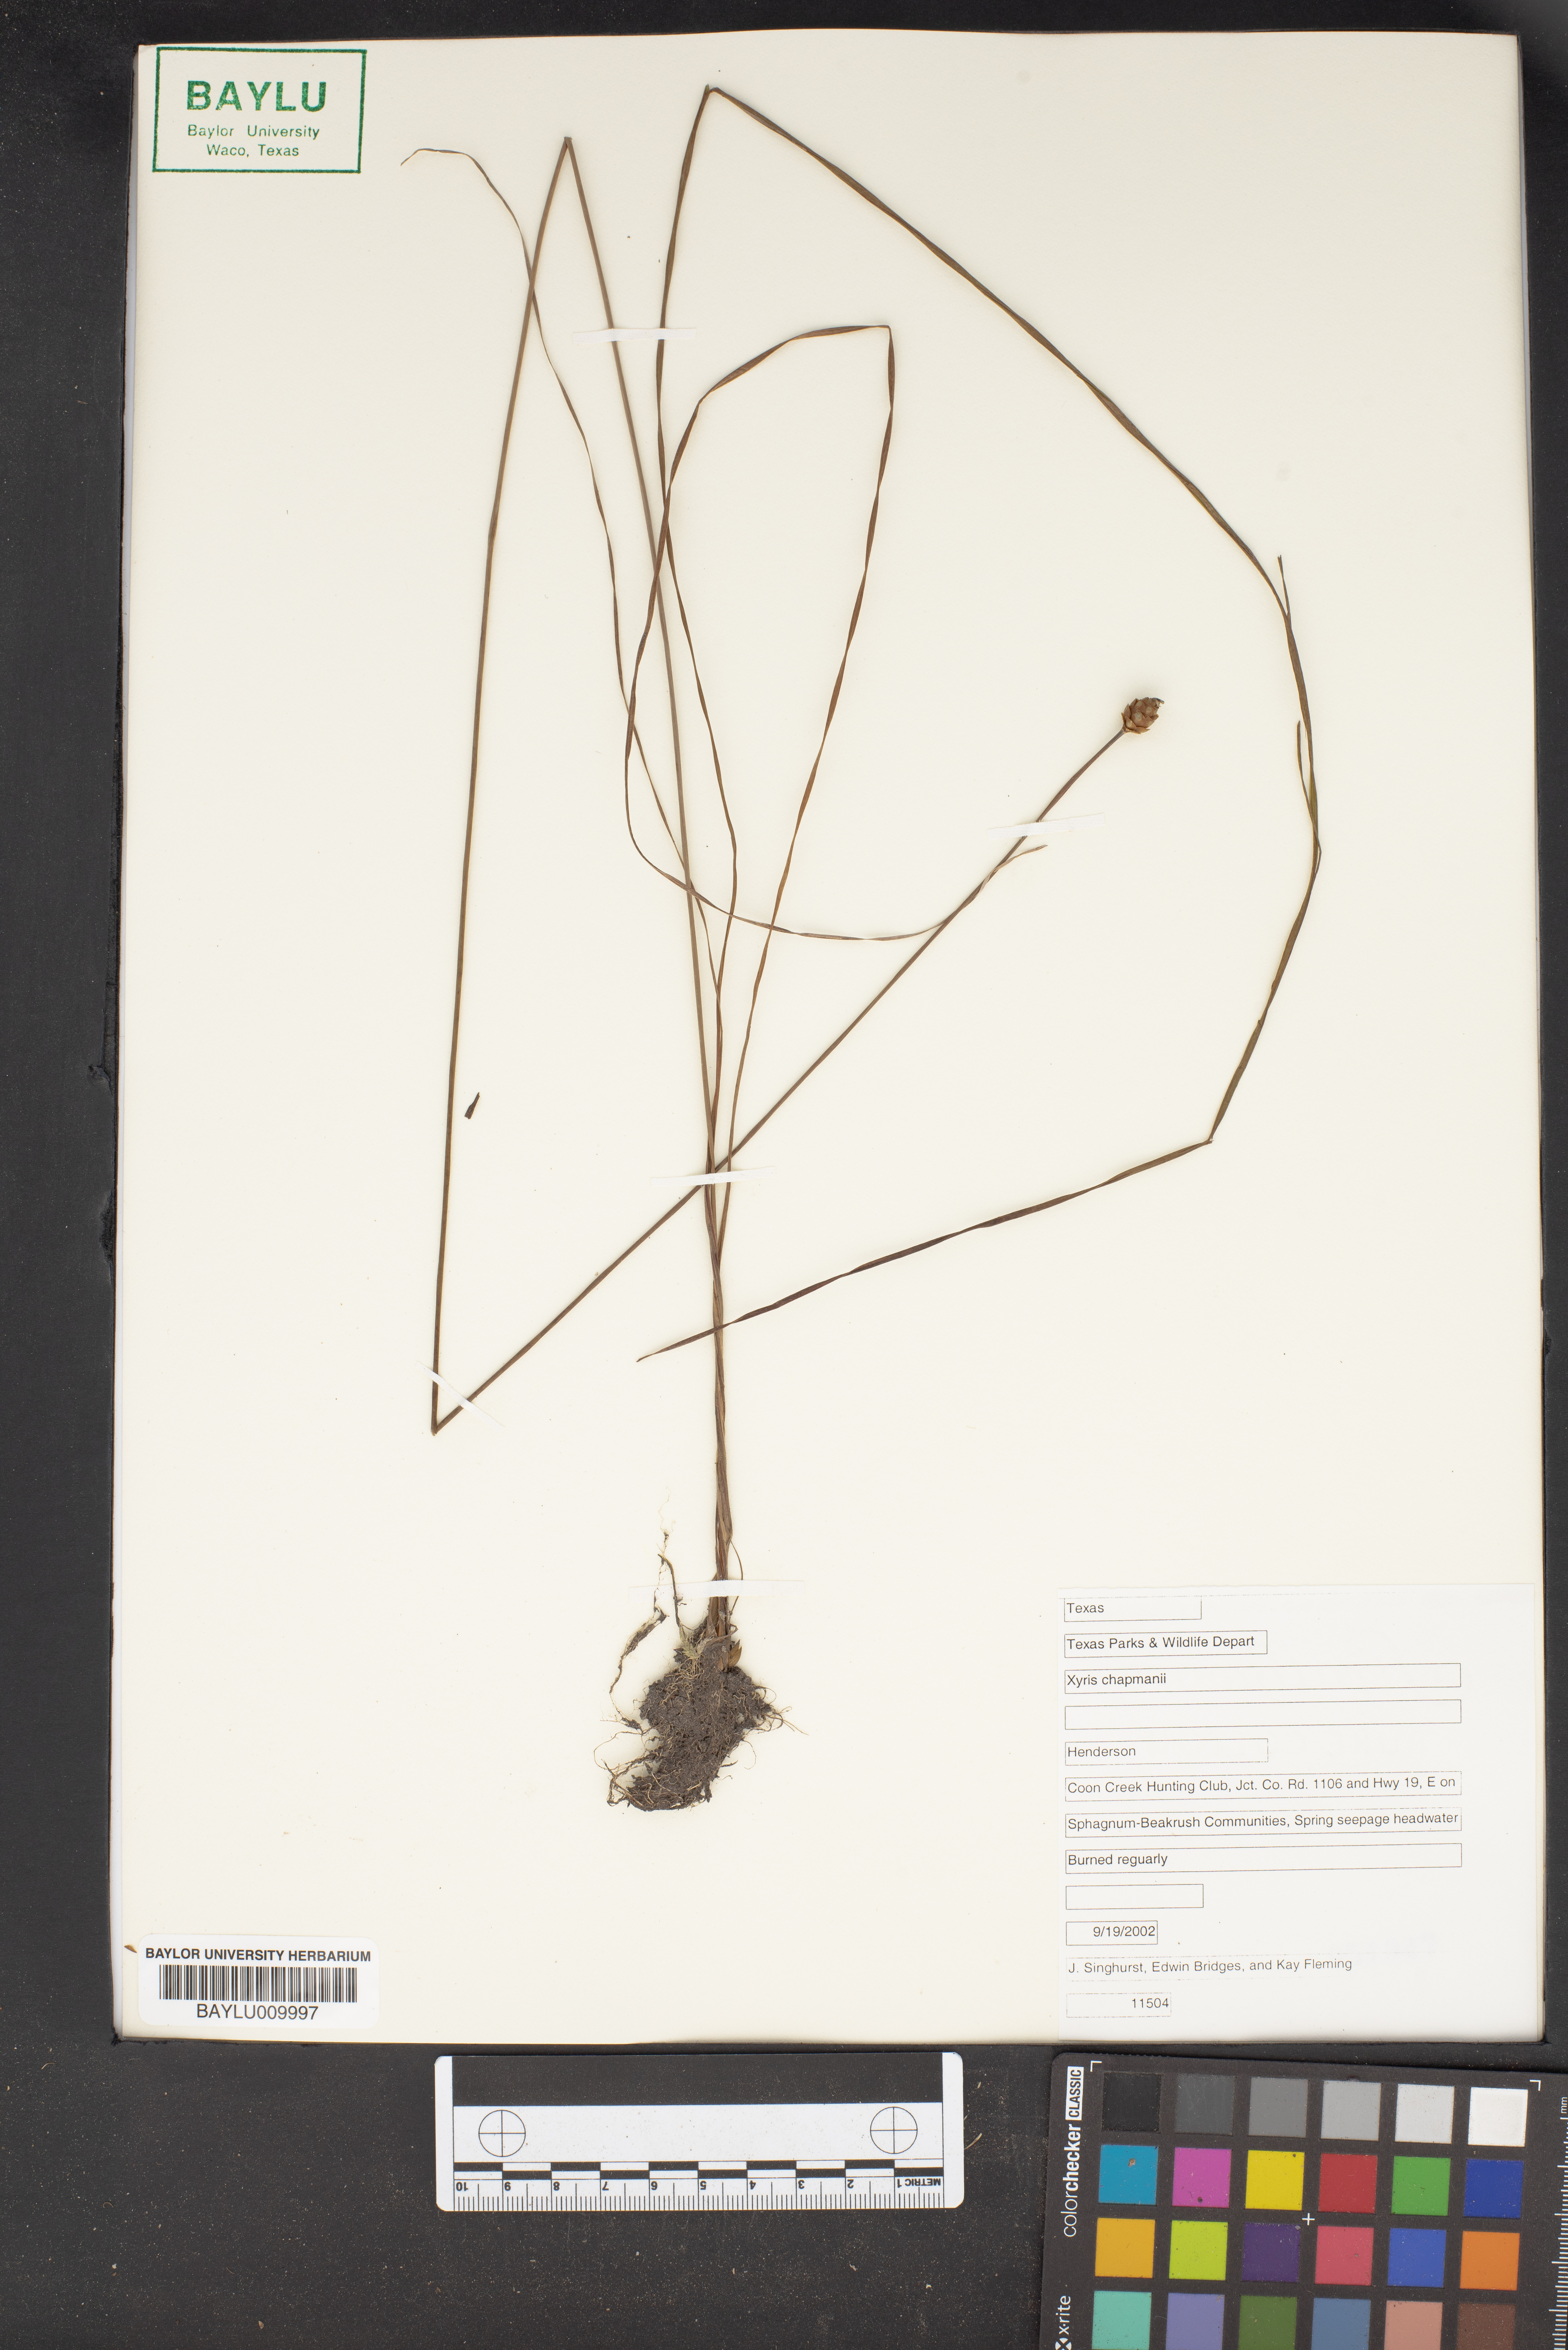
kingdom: Plantae
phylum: Tracheophyta
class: Liliopsida
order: Poales
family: Xyridaceae
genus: Xyris
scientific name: Xyris chapmanii
